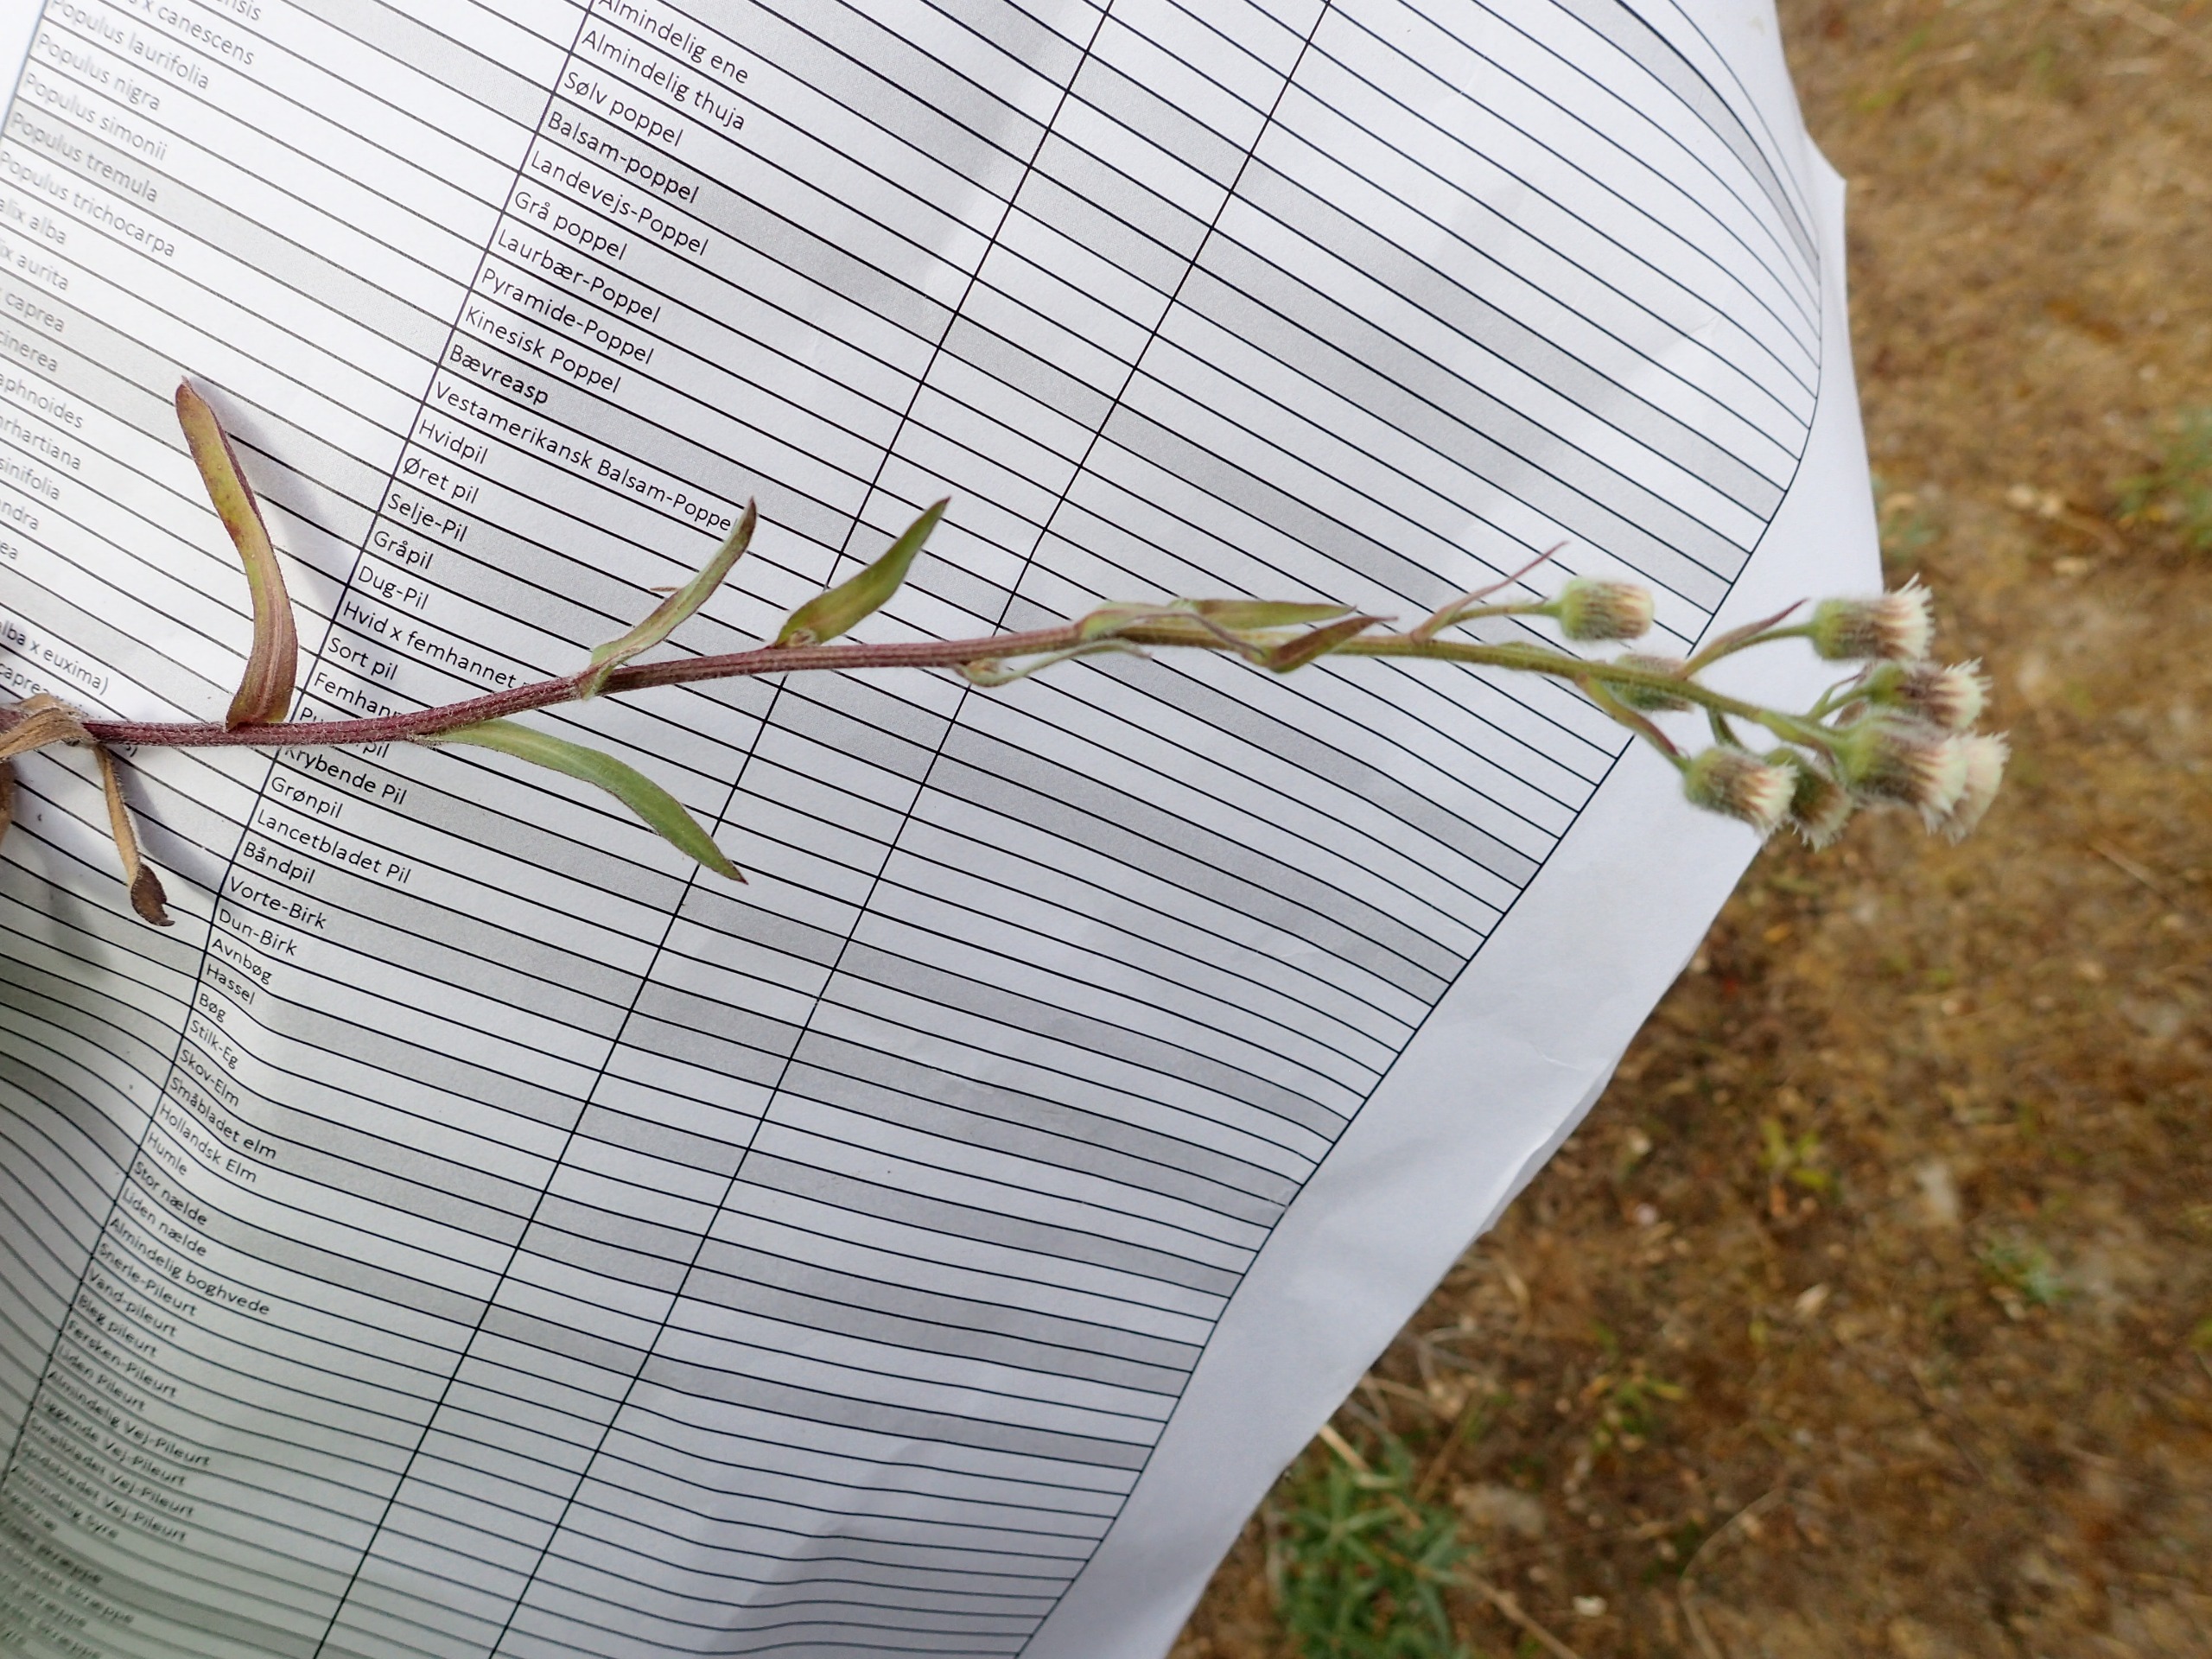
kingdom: Plantae
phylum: Tracheophyta
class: Magnoliopsida
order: Asterales
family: Asteraceae
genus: Erigeron
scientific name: Erigeron acris
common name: Bitter bakkestjerne
